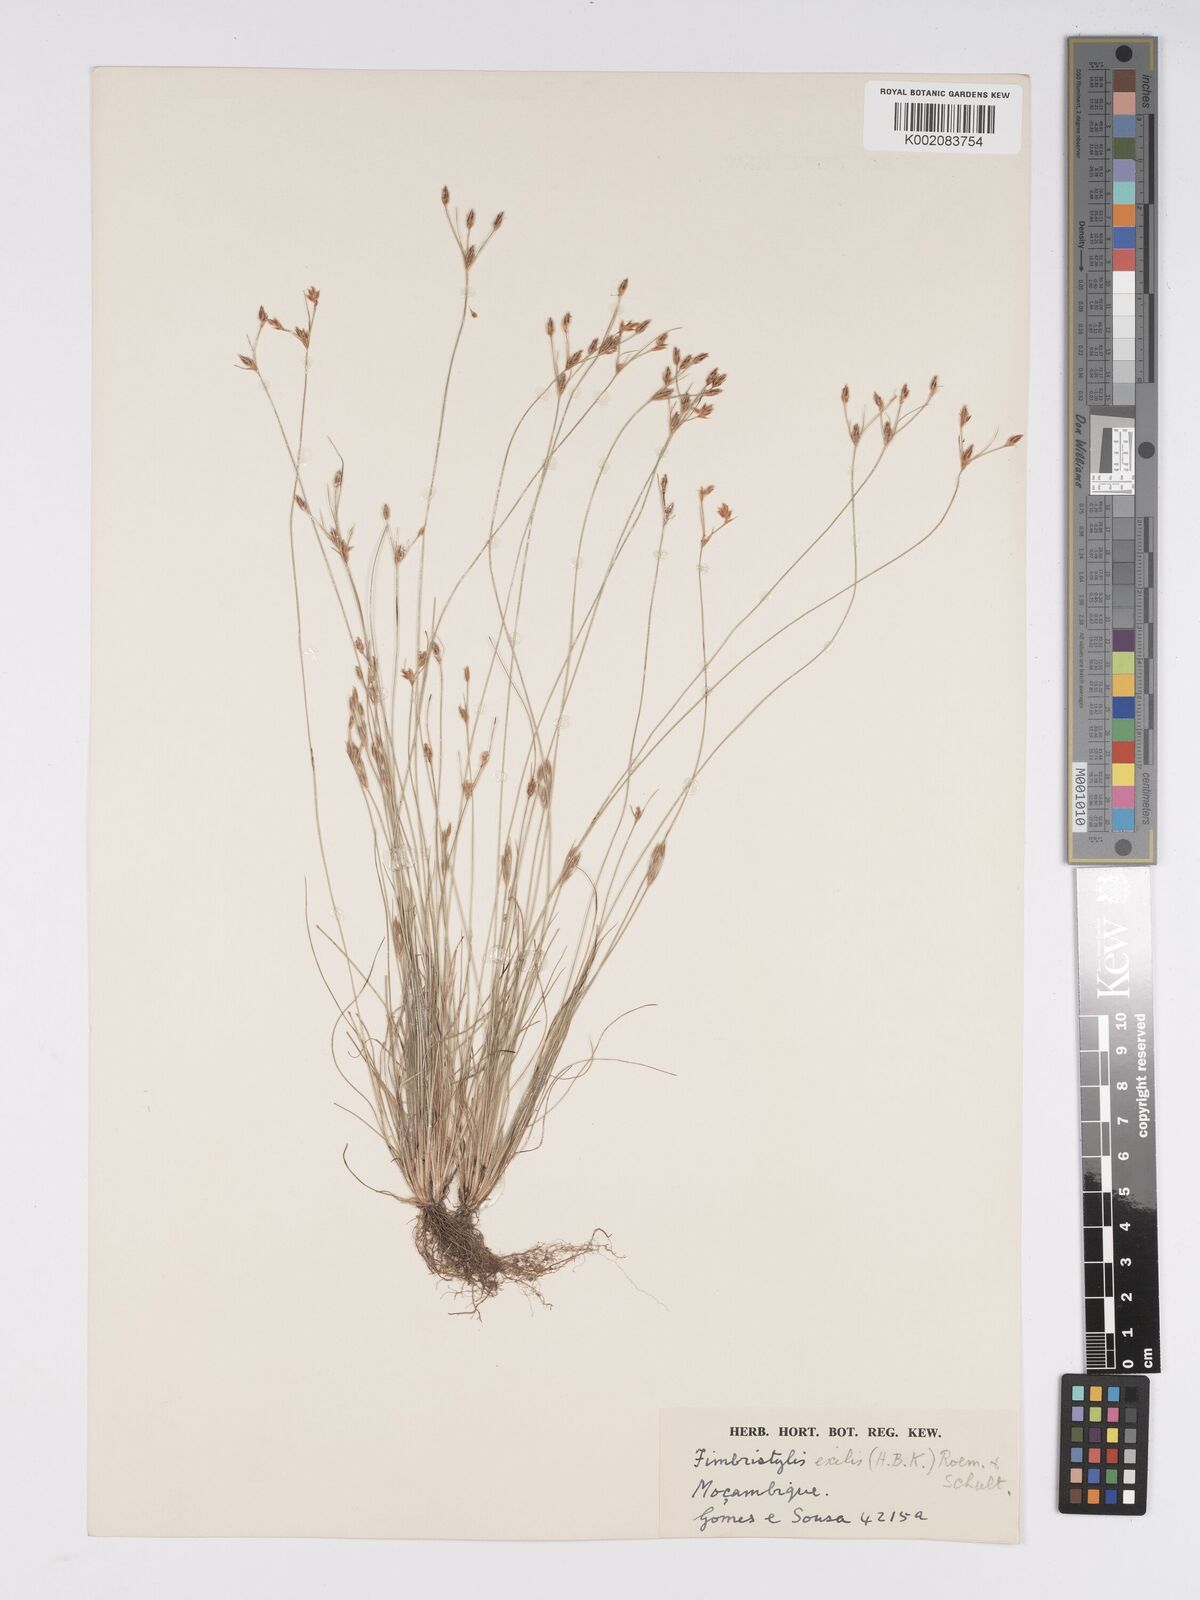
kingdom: Plantae
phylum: Tracheophyta
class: Liliopsida
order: Poales
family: Cyperaceae
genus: Bulbostylis
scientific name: Bulbostylis hispidula
